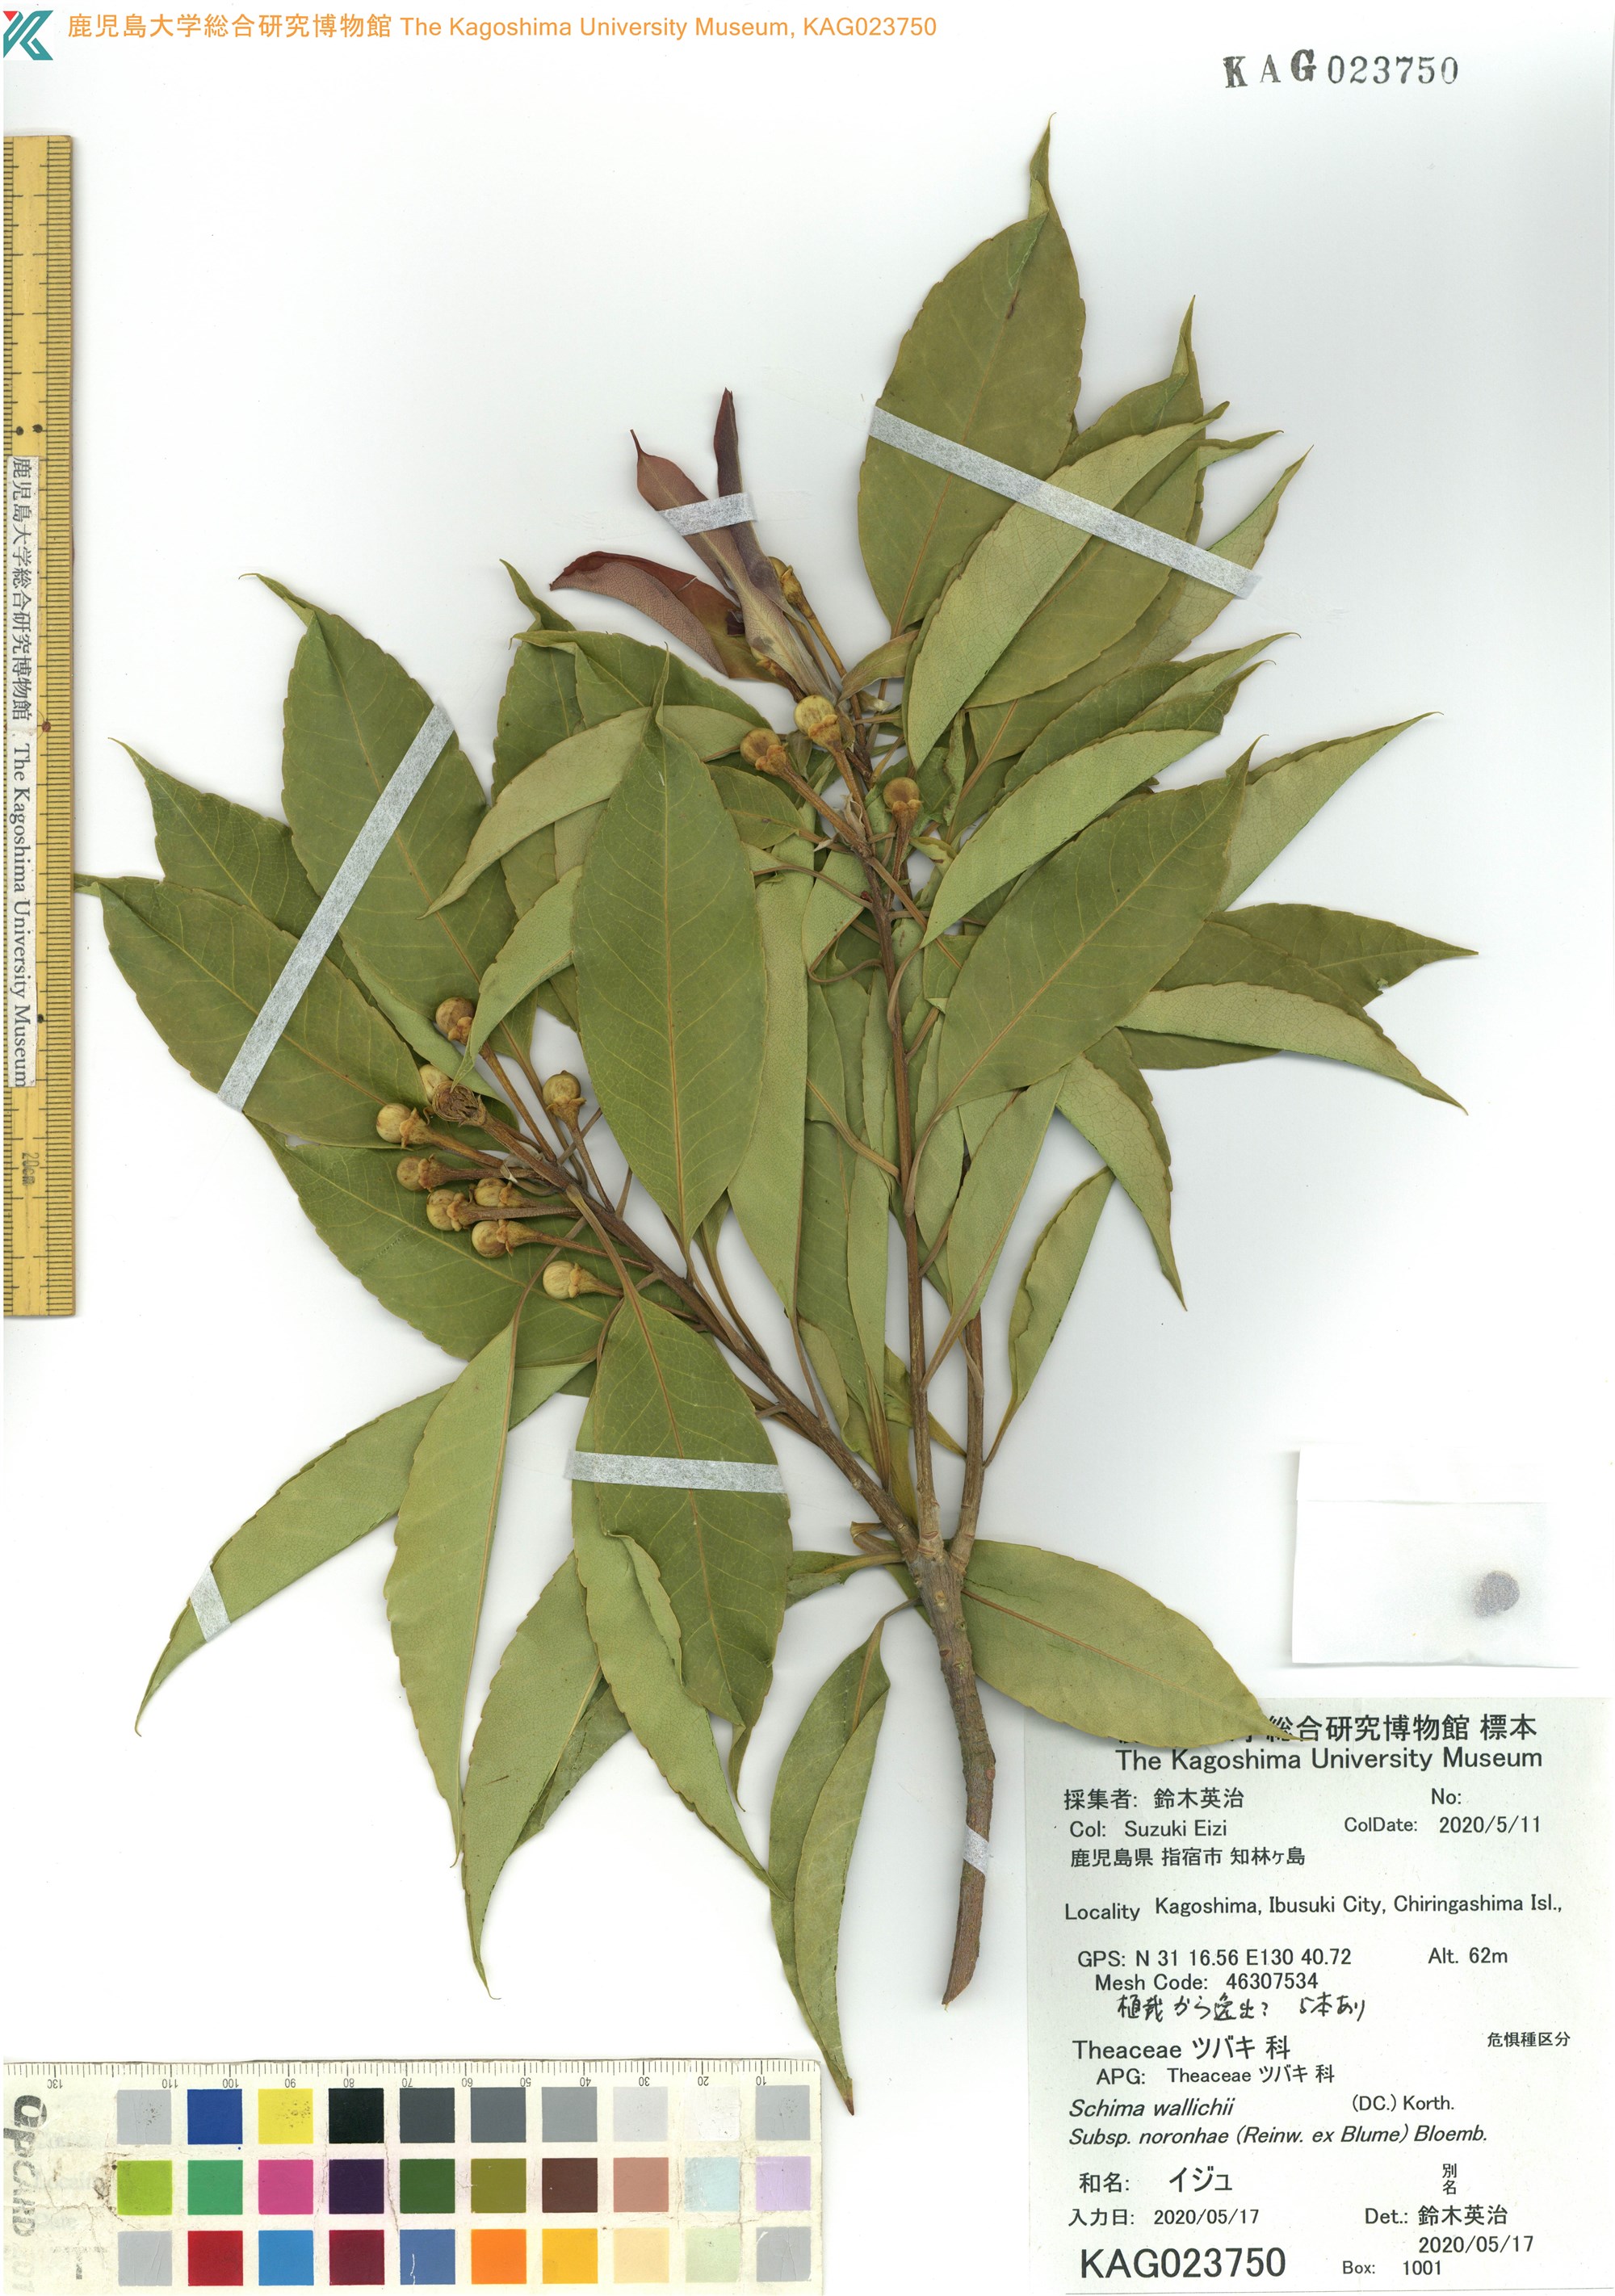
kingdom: Plantae
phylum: Tracheophyta
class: Magnoliopsida
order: Ericales
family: Theaceae
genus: Schima
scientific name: Schima noronhae
